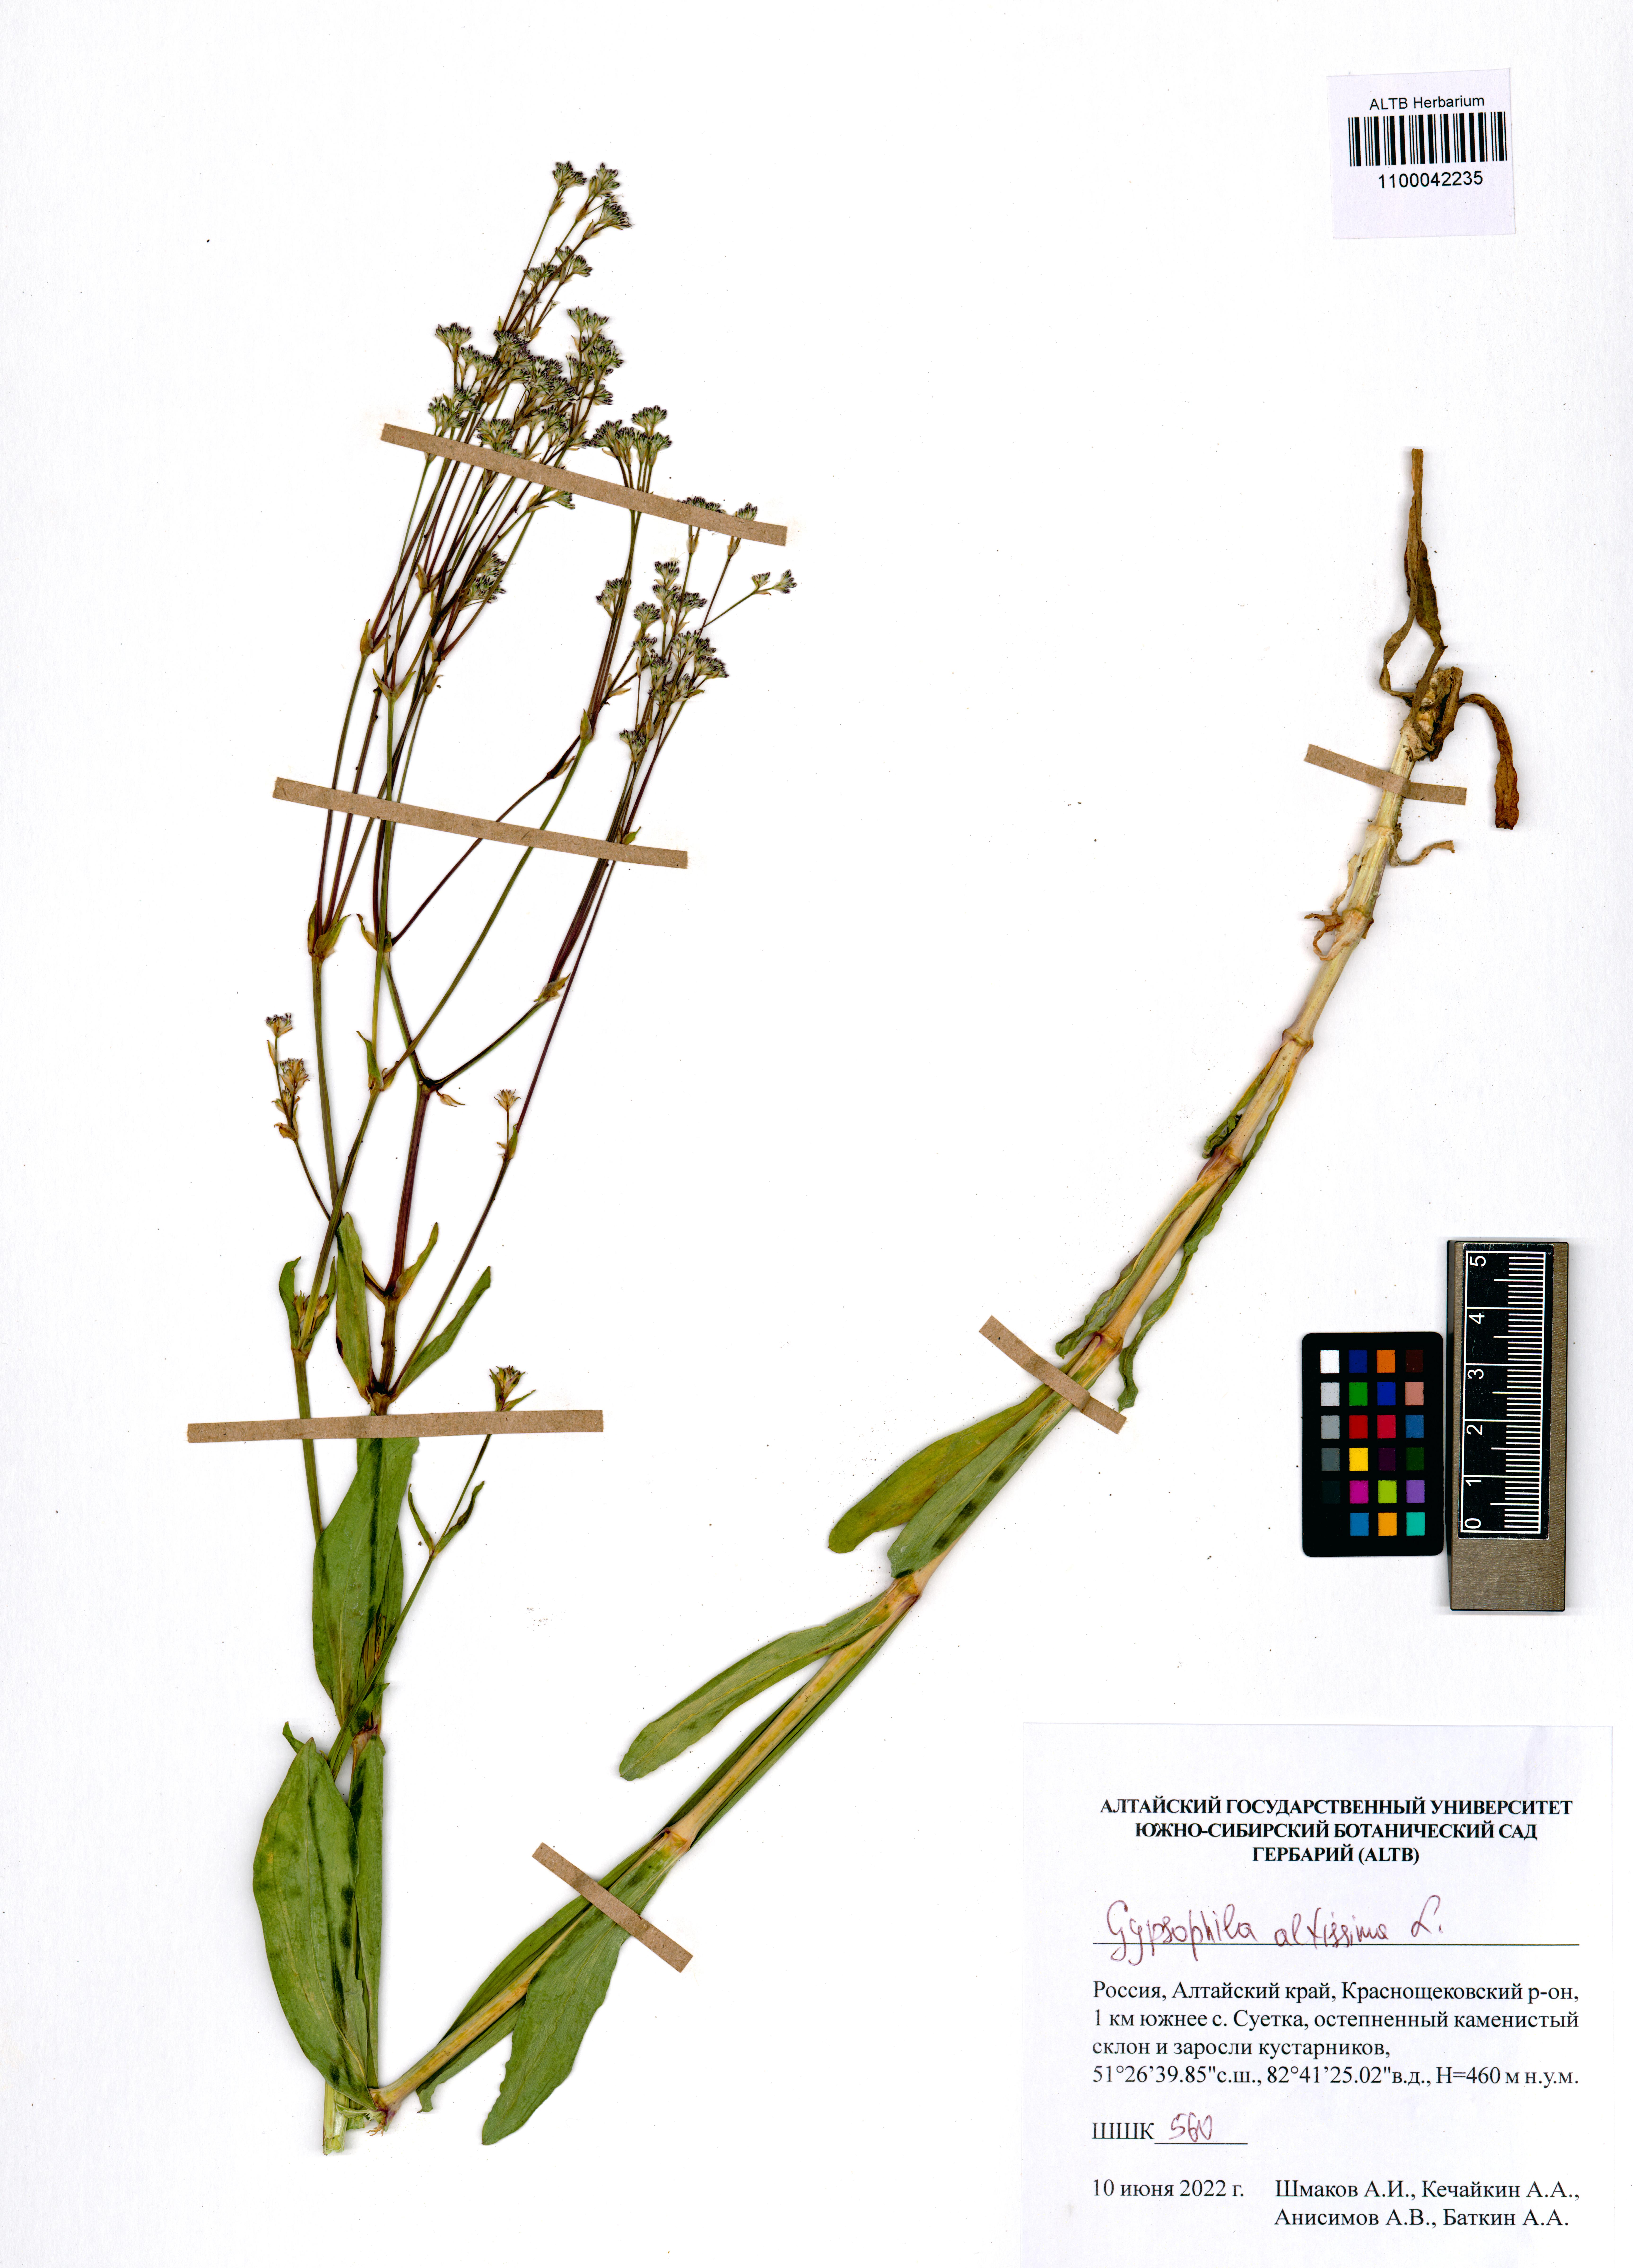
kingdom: Plantae
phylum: Tracheophyta
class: Magnoliopsida
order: Caryophyllales
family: Caryophyllaceae
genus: Gypsophila
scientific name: Gypsophila altissima
